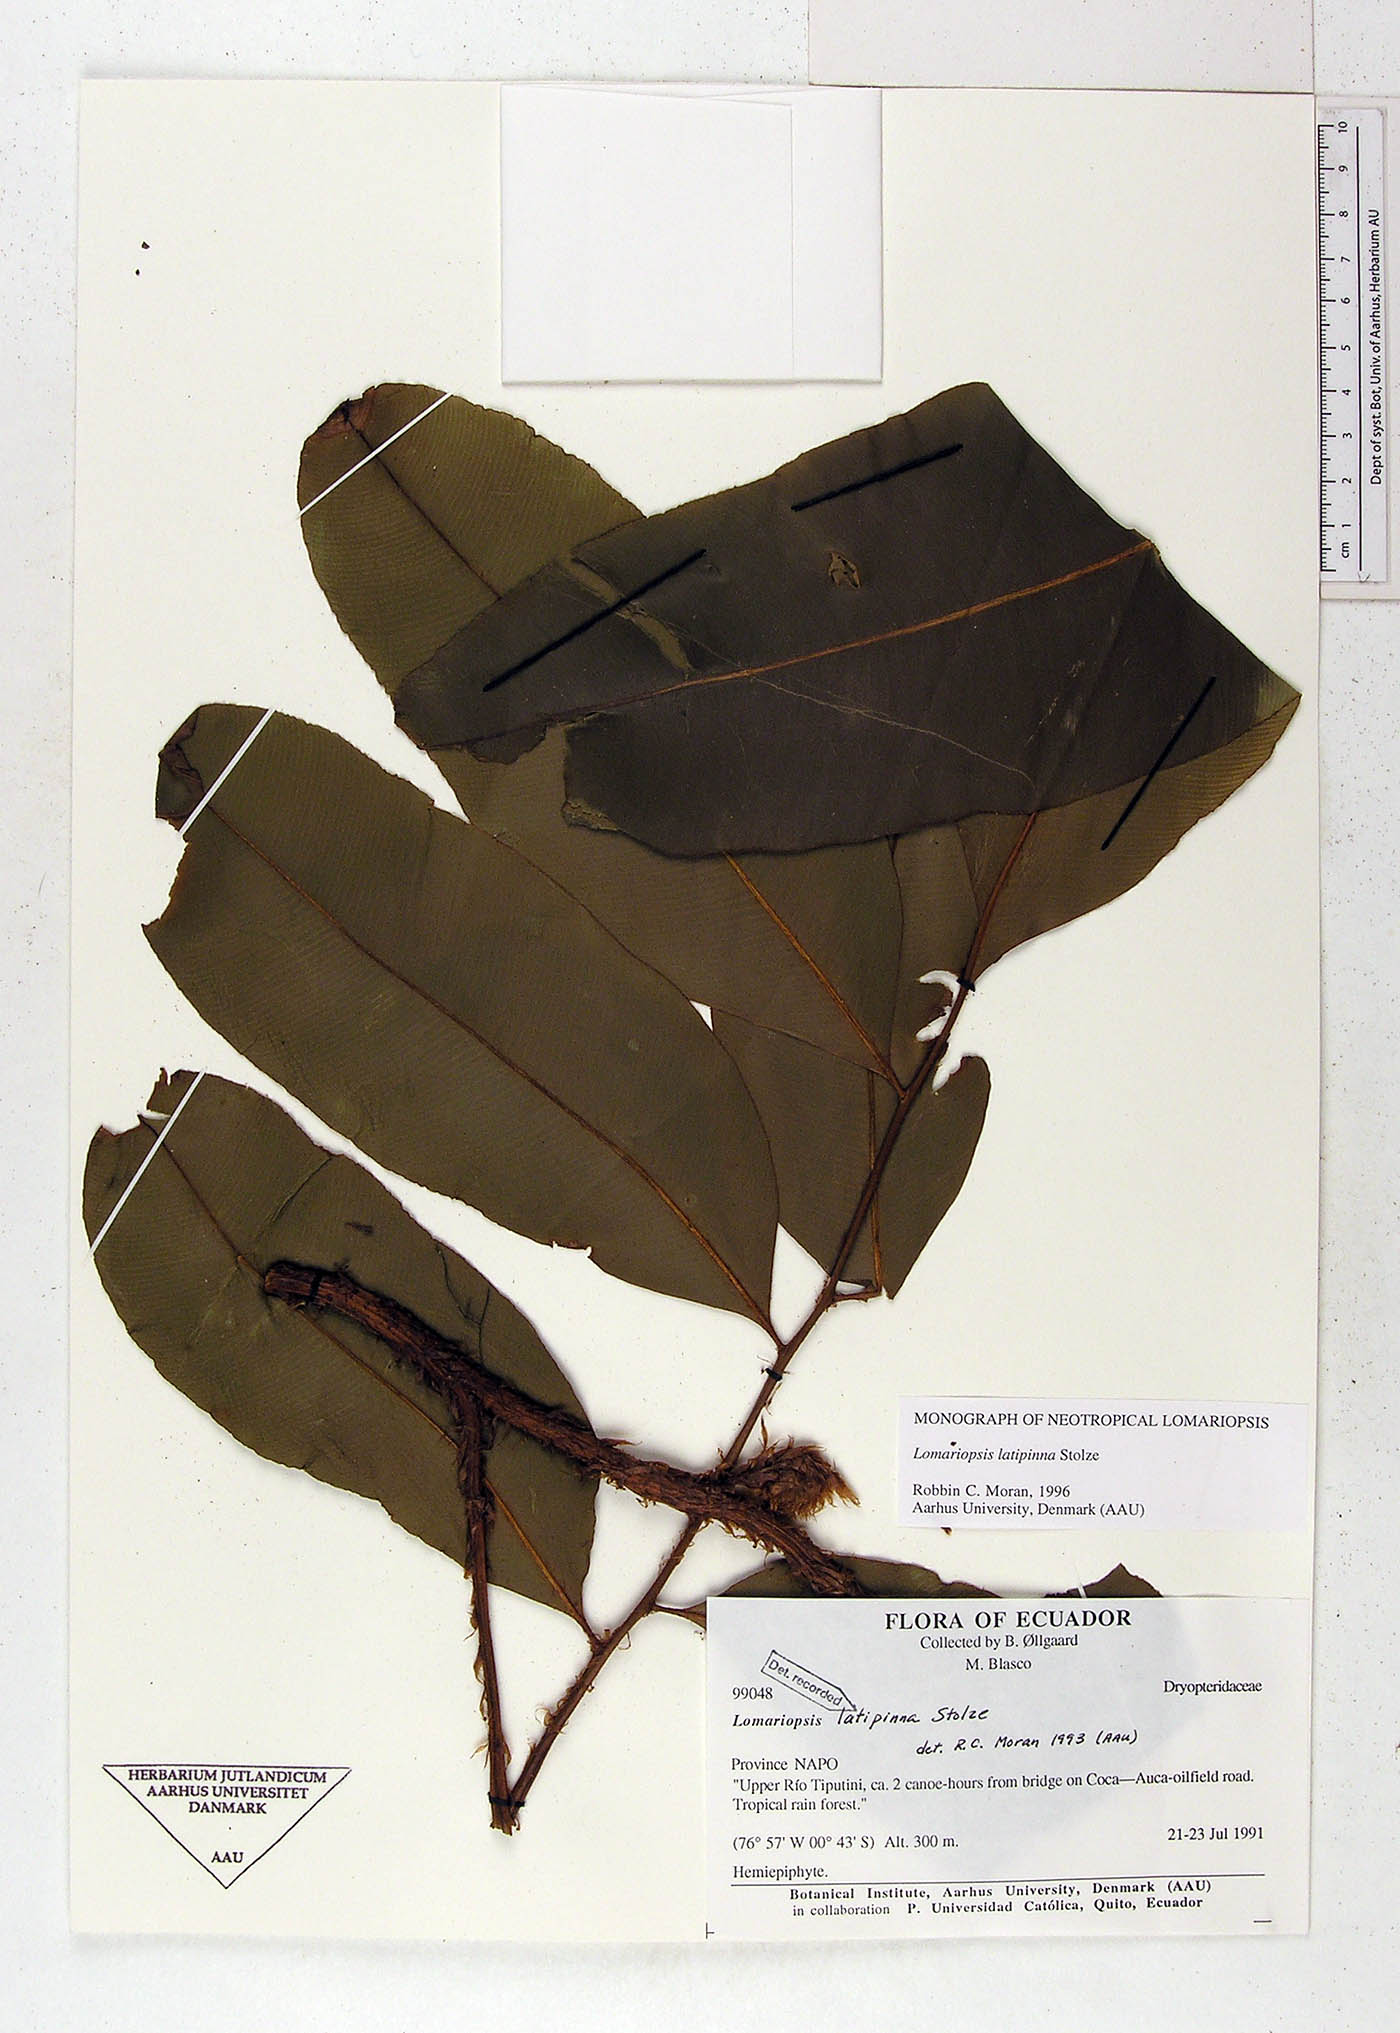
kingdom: Plantae
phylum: Tracheophyta
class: Polypodiopsida
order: Polypodiales
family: Lomariopsidaceae
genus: Lomariopsis
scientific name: Lomariopsis latipinna
